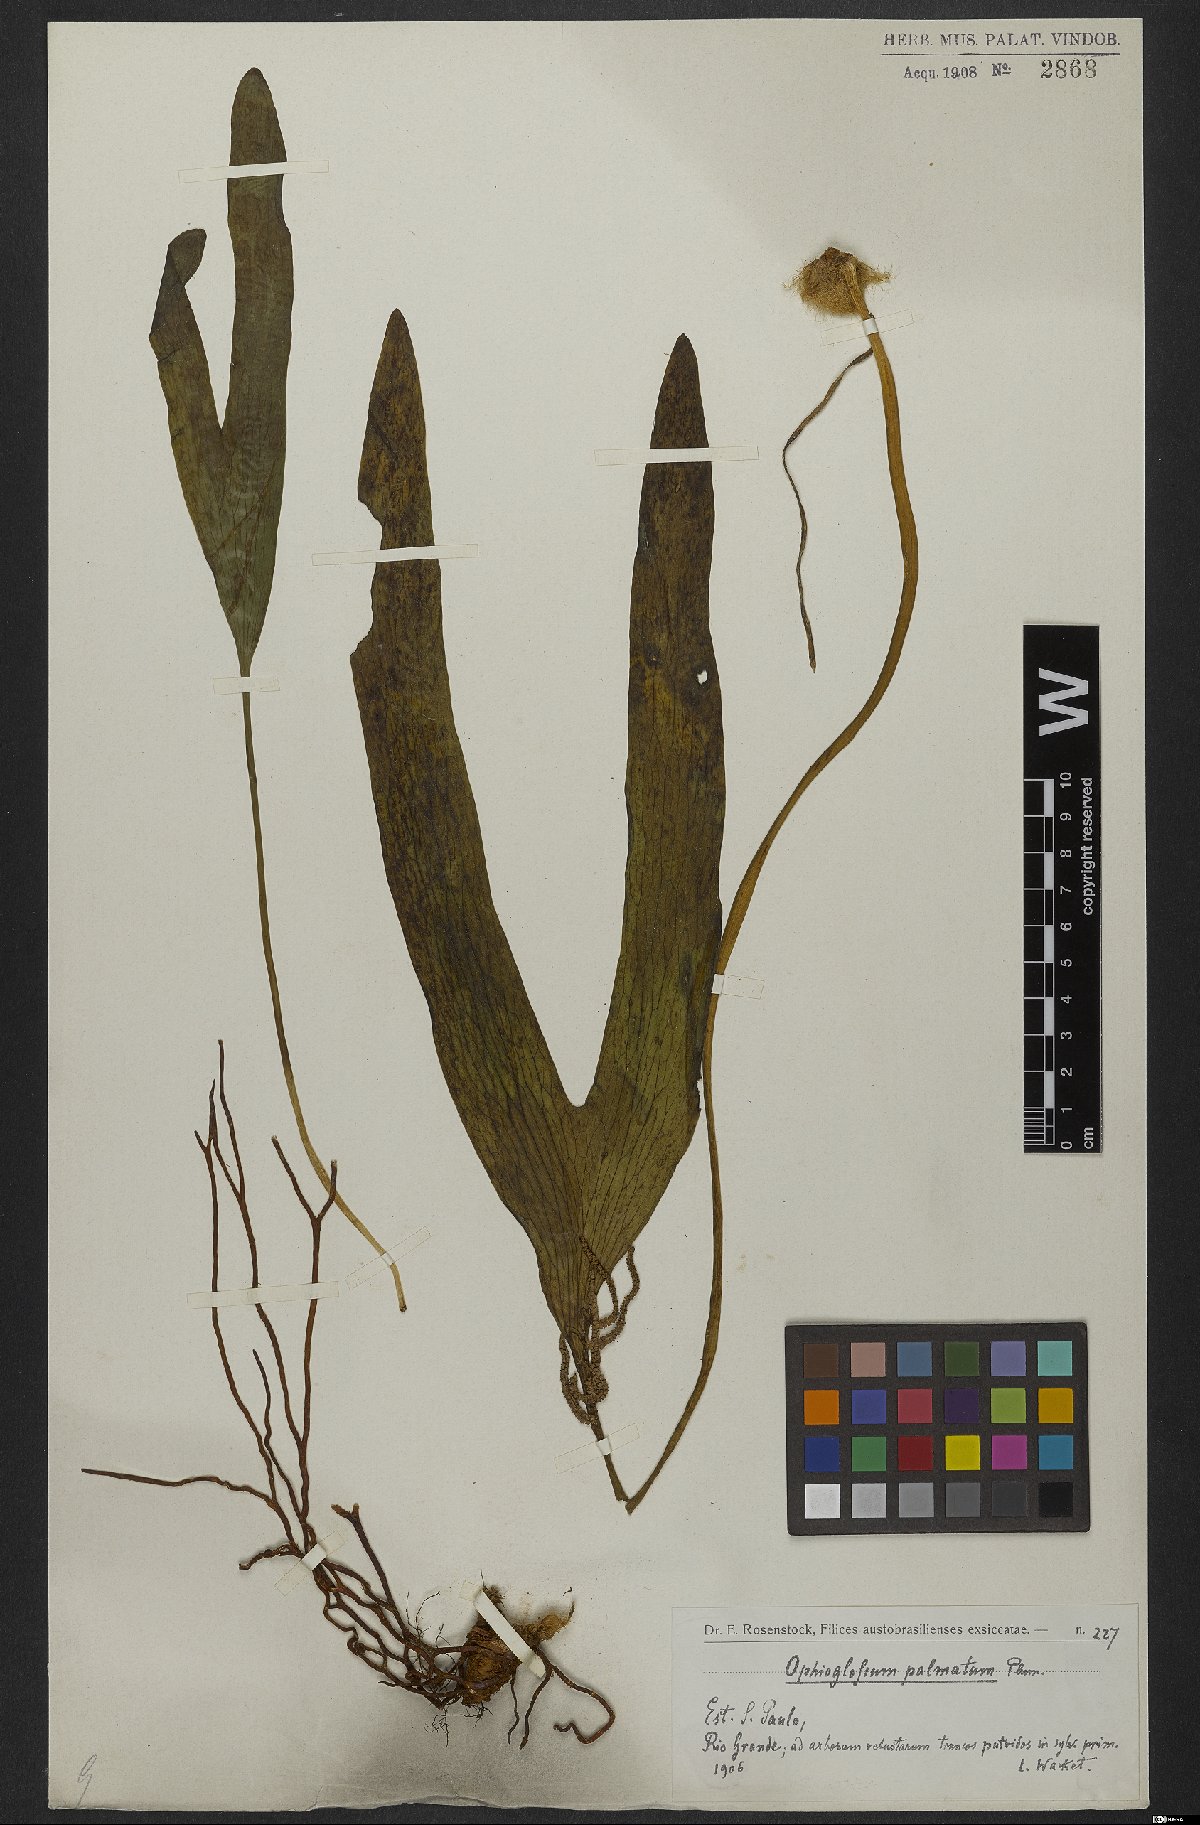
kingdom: Plantae
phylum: Tracheophyta
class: Polypodiopsida
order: Ophioglossales
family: Ophioglossaceae
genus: Cheiroglossa
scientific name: Cheiroglossa palmata
